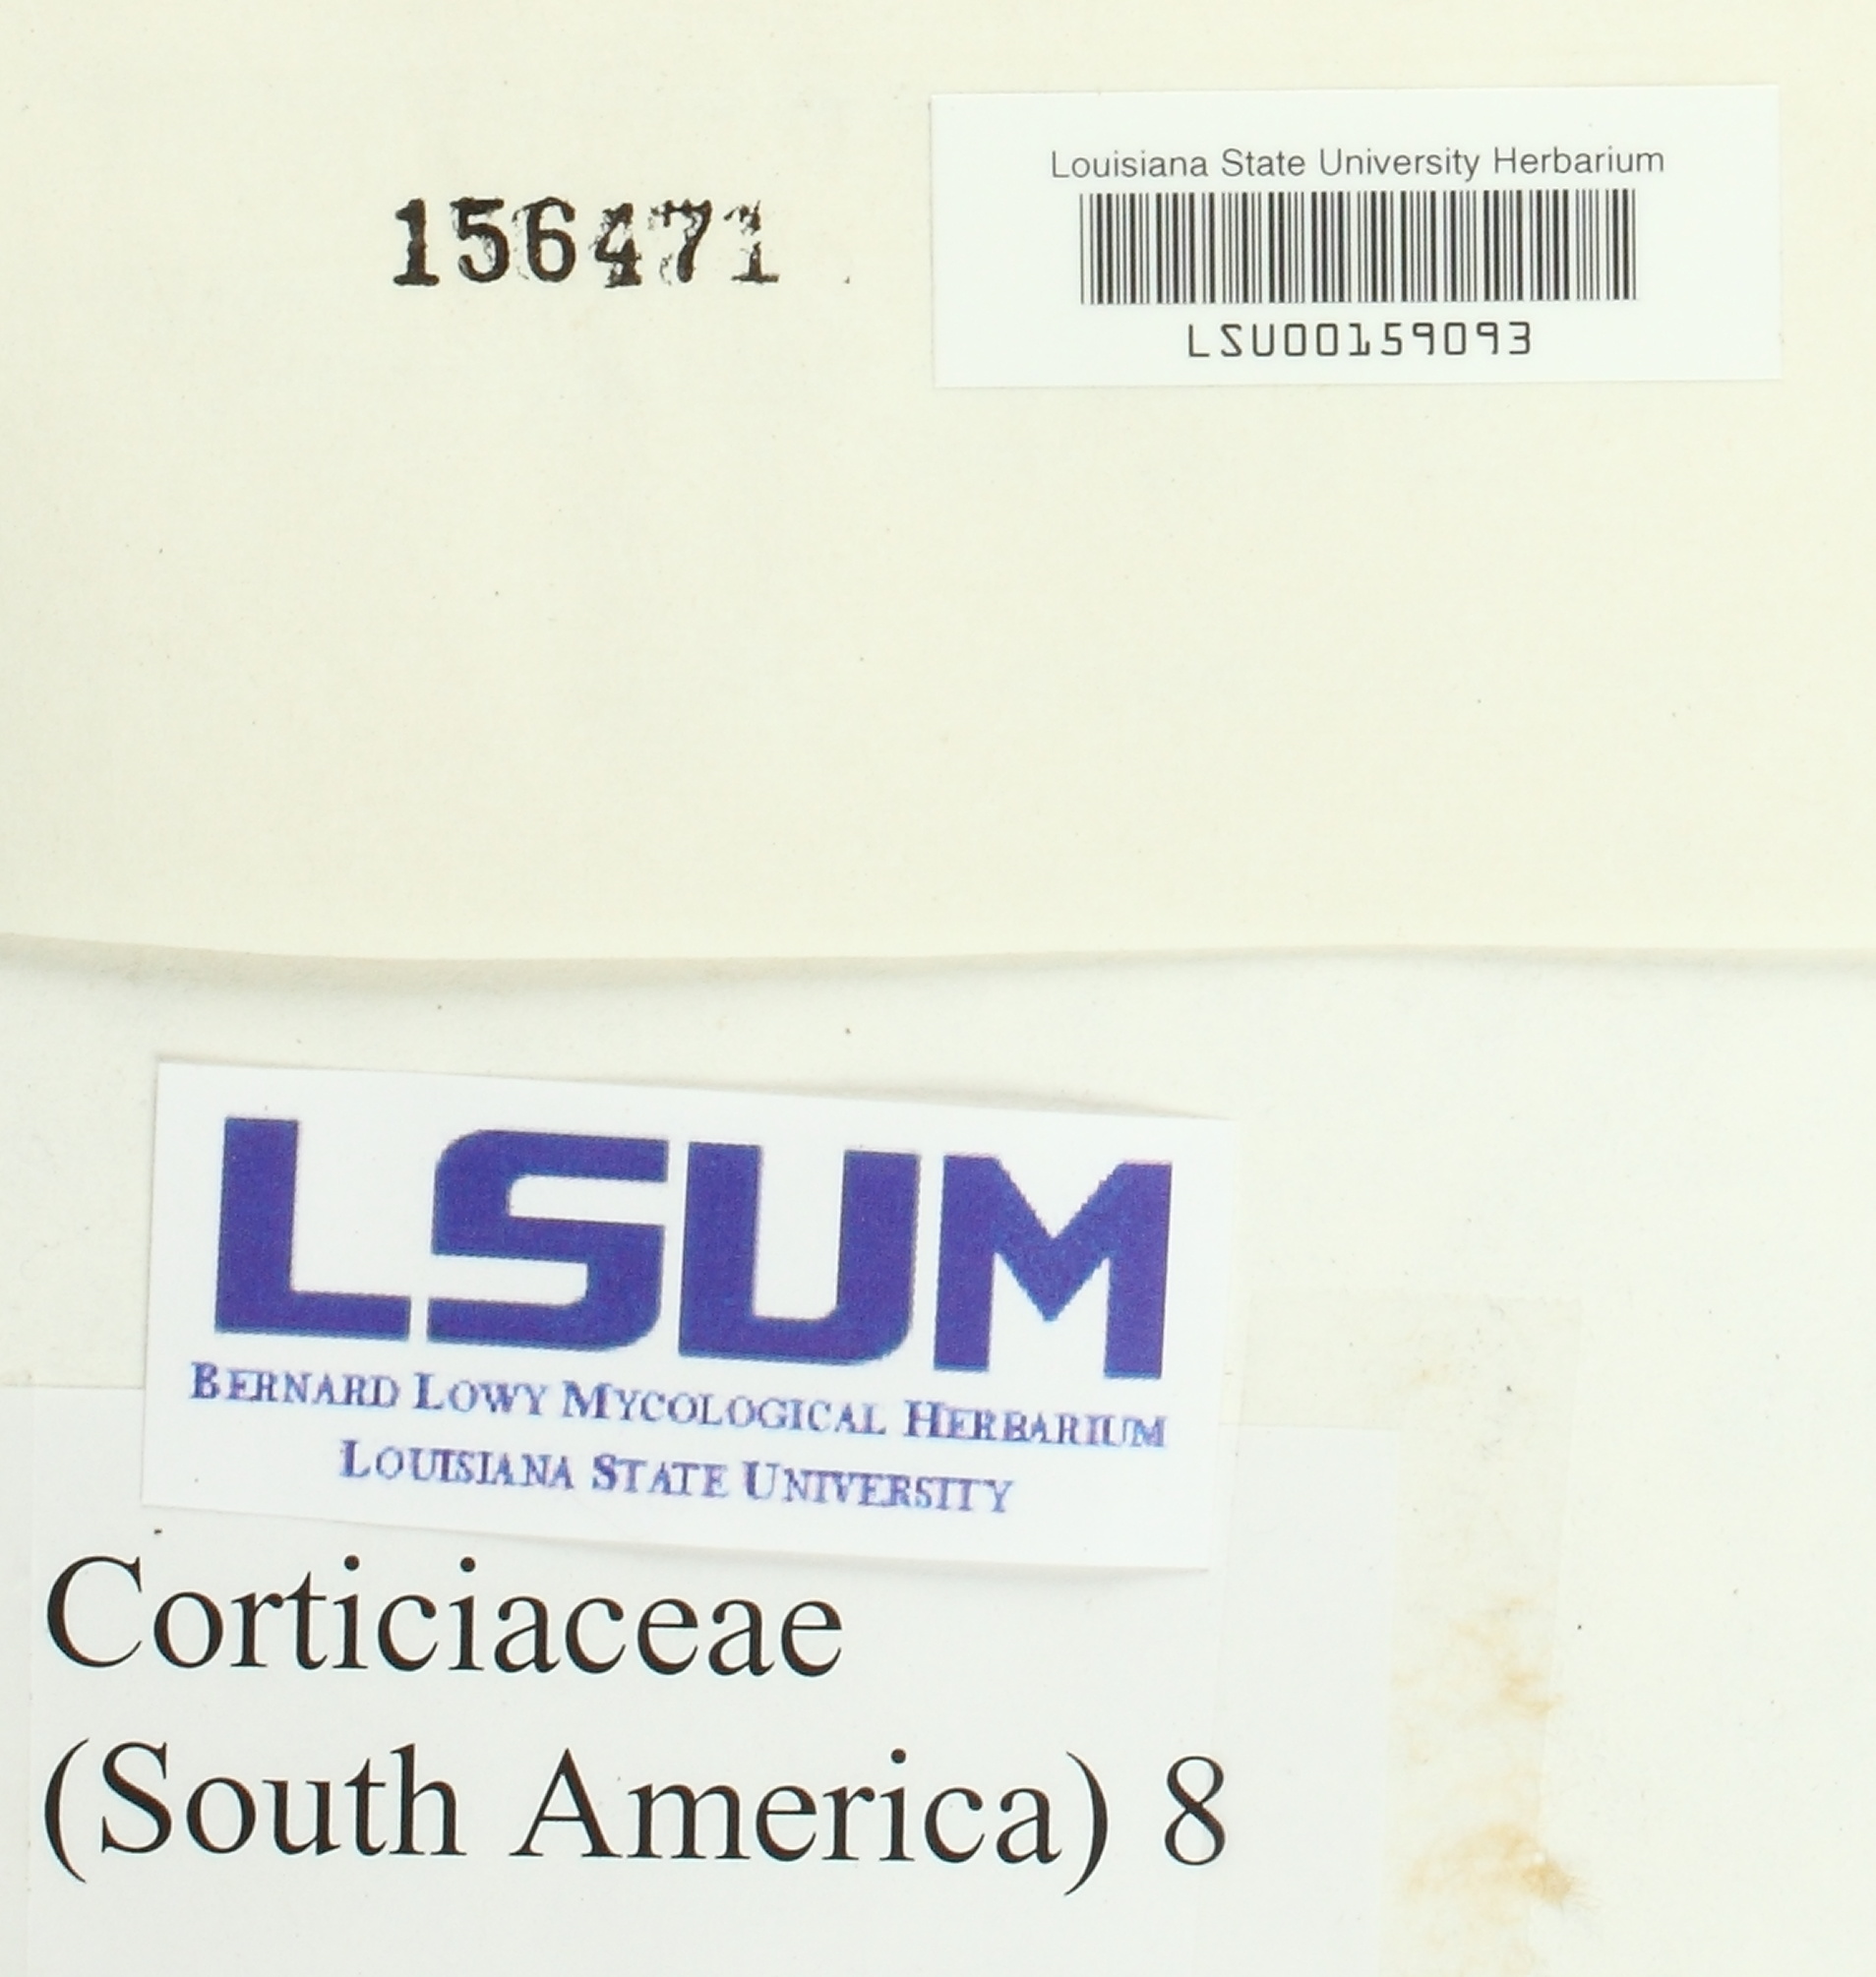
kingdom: Fungi
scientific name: Fungi
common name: Fungi
